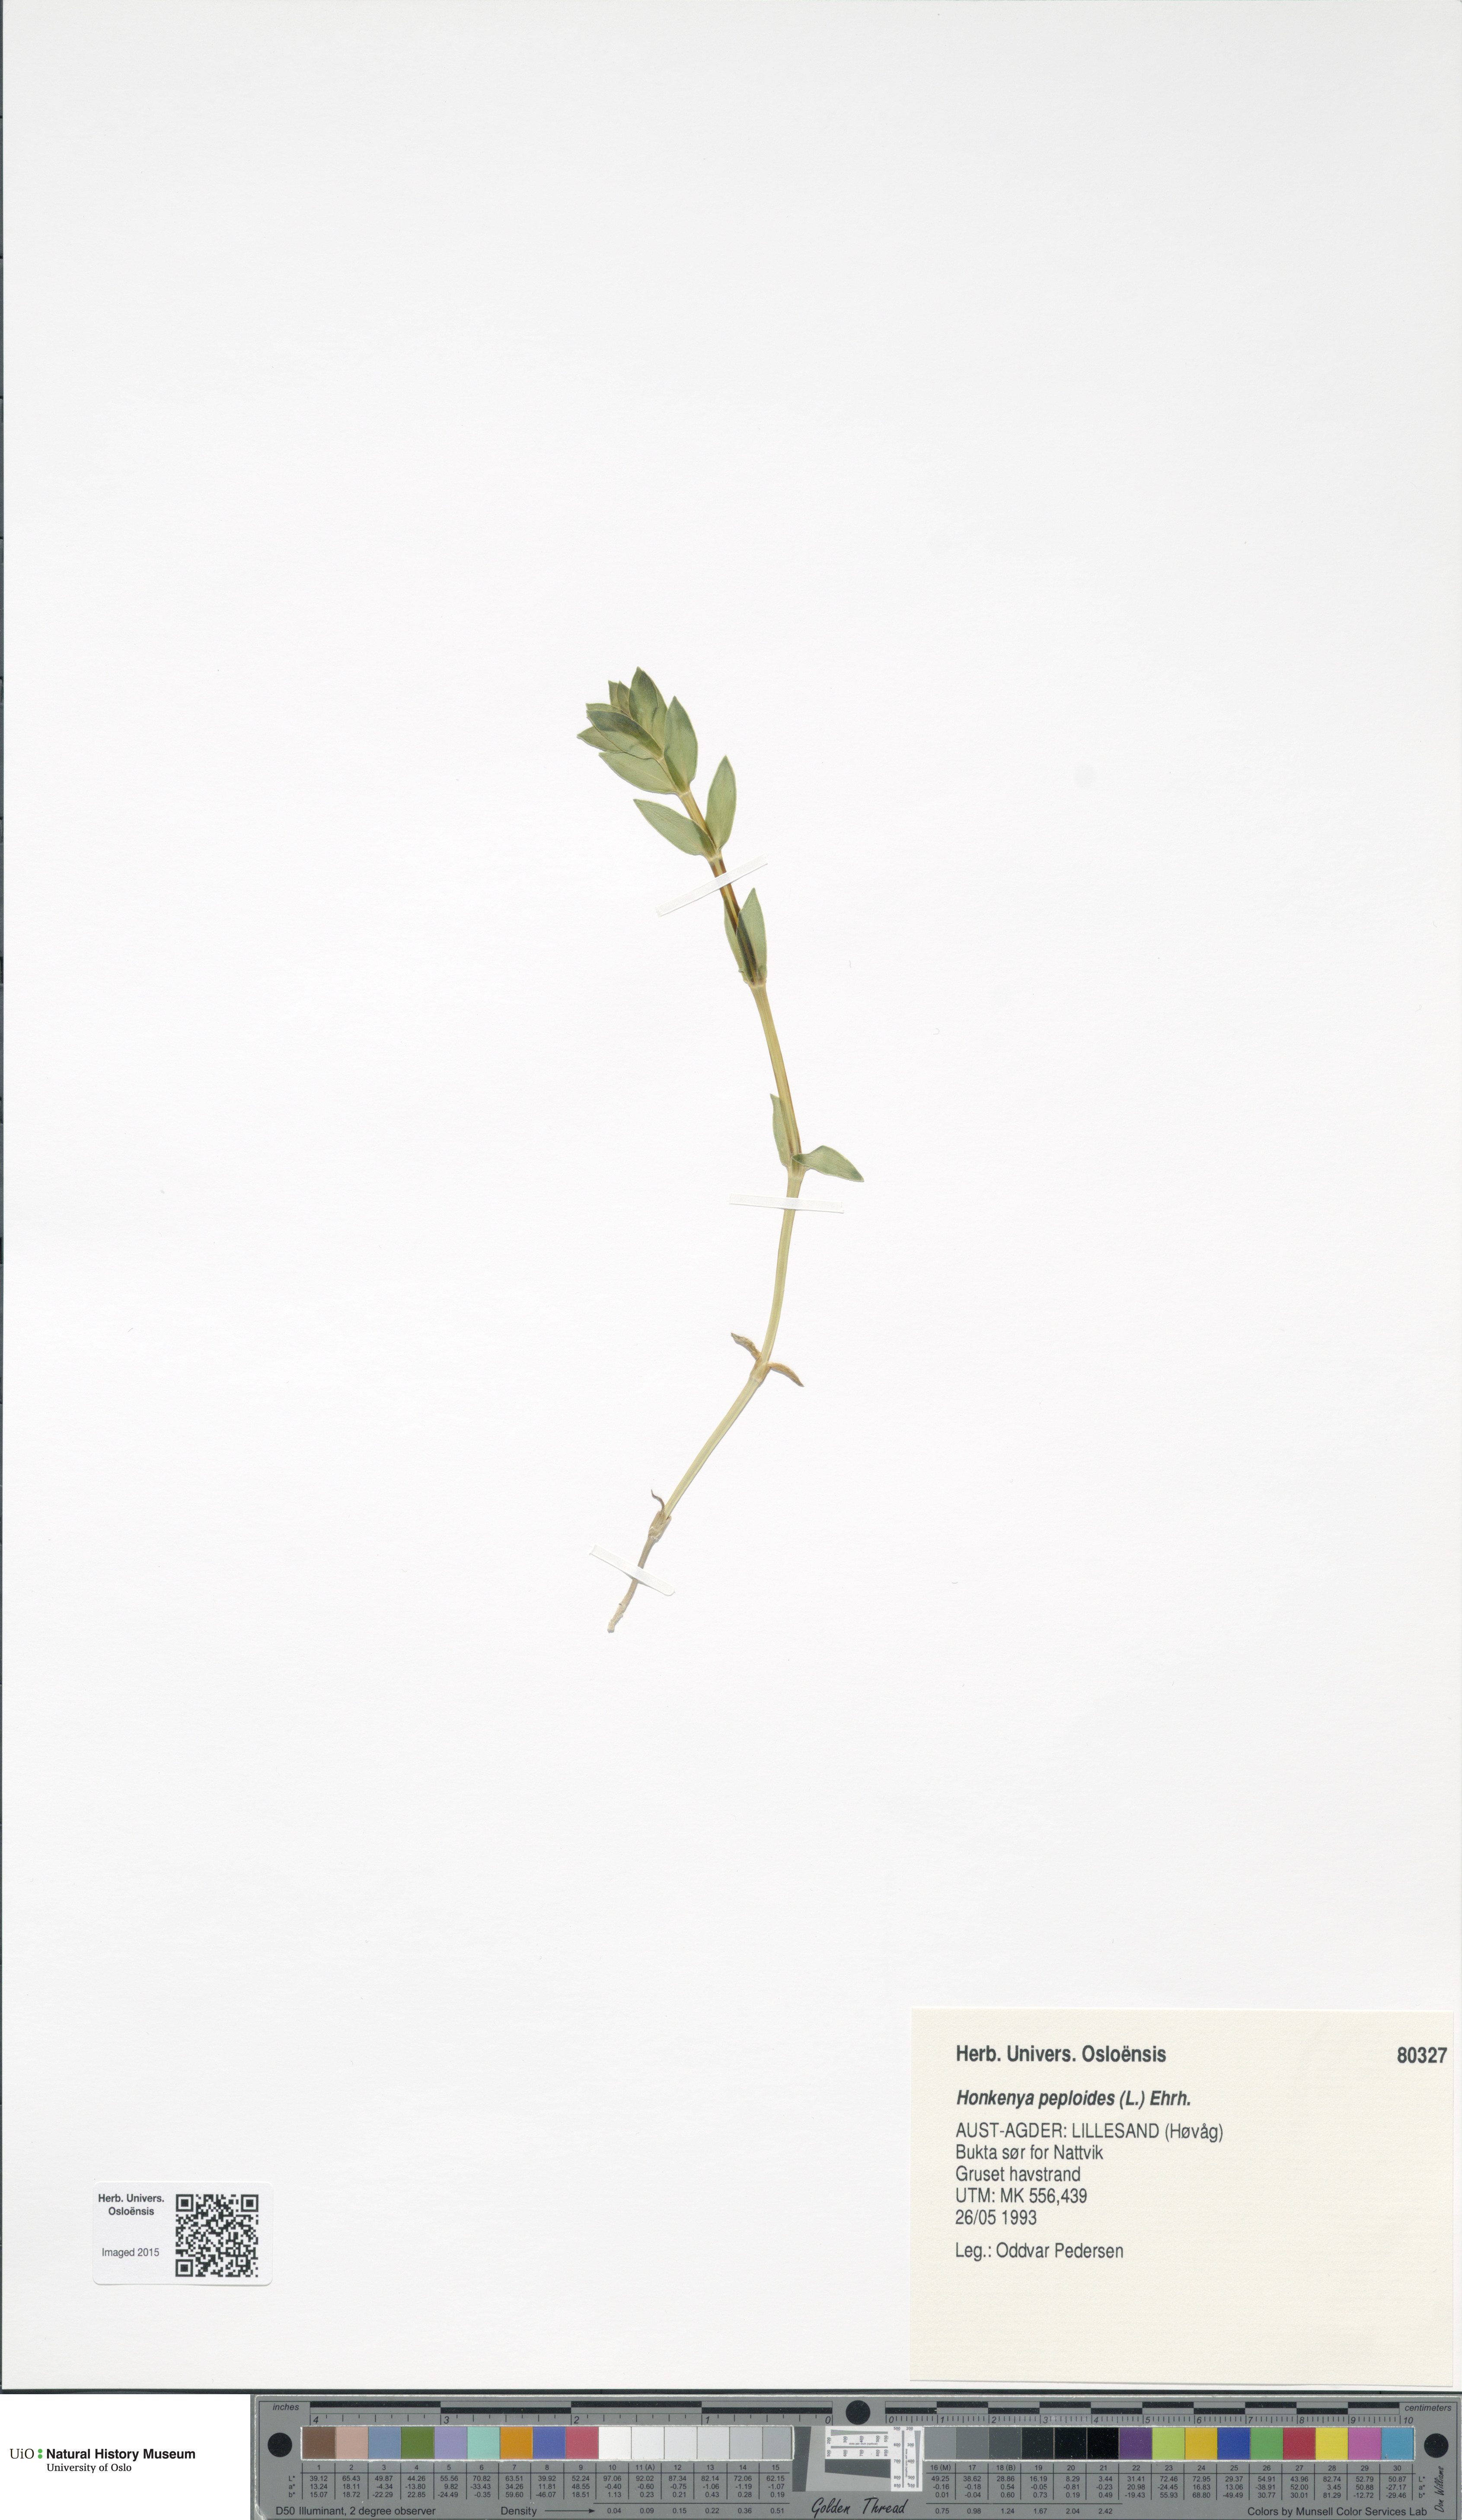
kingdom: Plantae
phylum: Tracheophyta
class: Magnoliopsida
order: Caryophyllales
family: Caryophyllaceae
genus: Honckenya
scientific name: Honckenya peploides
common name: Sea sandwort
